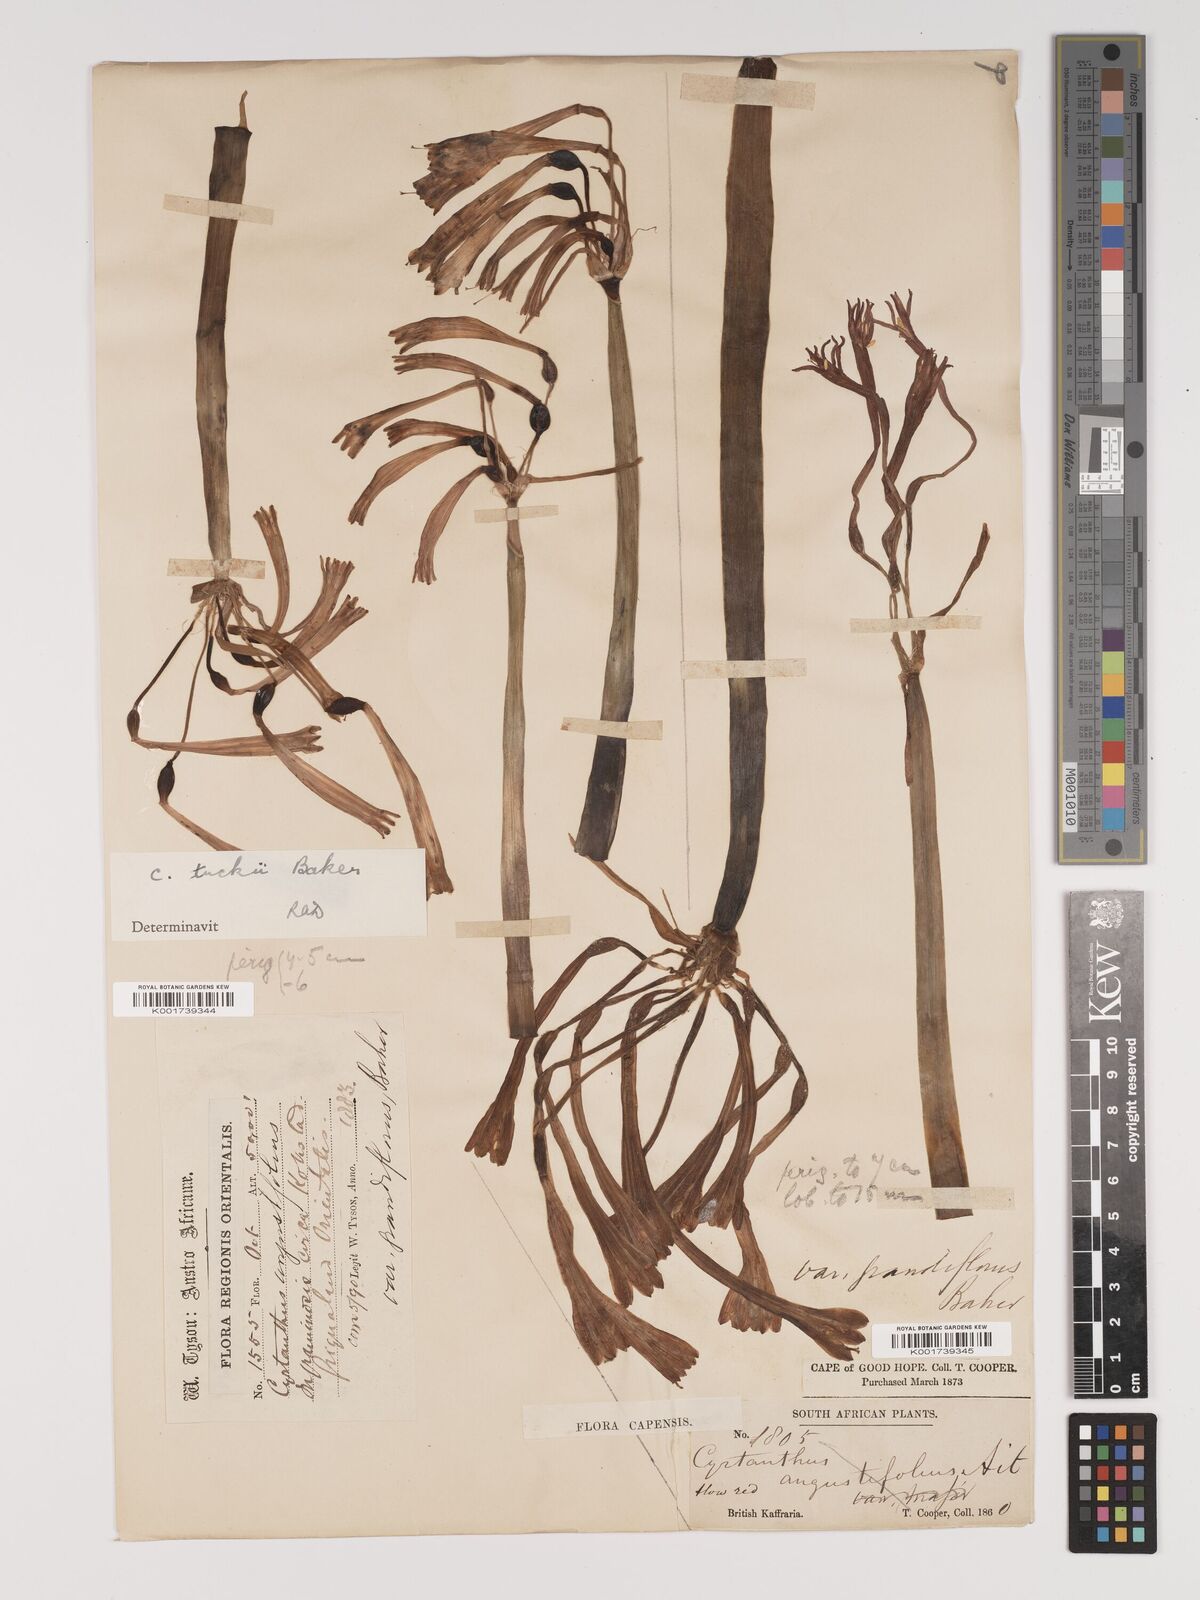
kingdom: Plantae
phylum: Tracheophyta
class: Liliopsida
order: Asparagales
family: Amaryllidaceae
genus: Cyrtanthus
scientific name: Cyrtanthus tuckii
